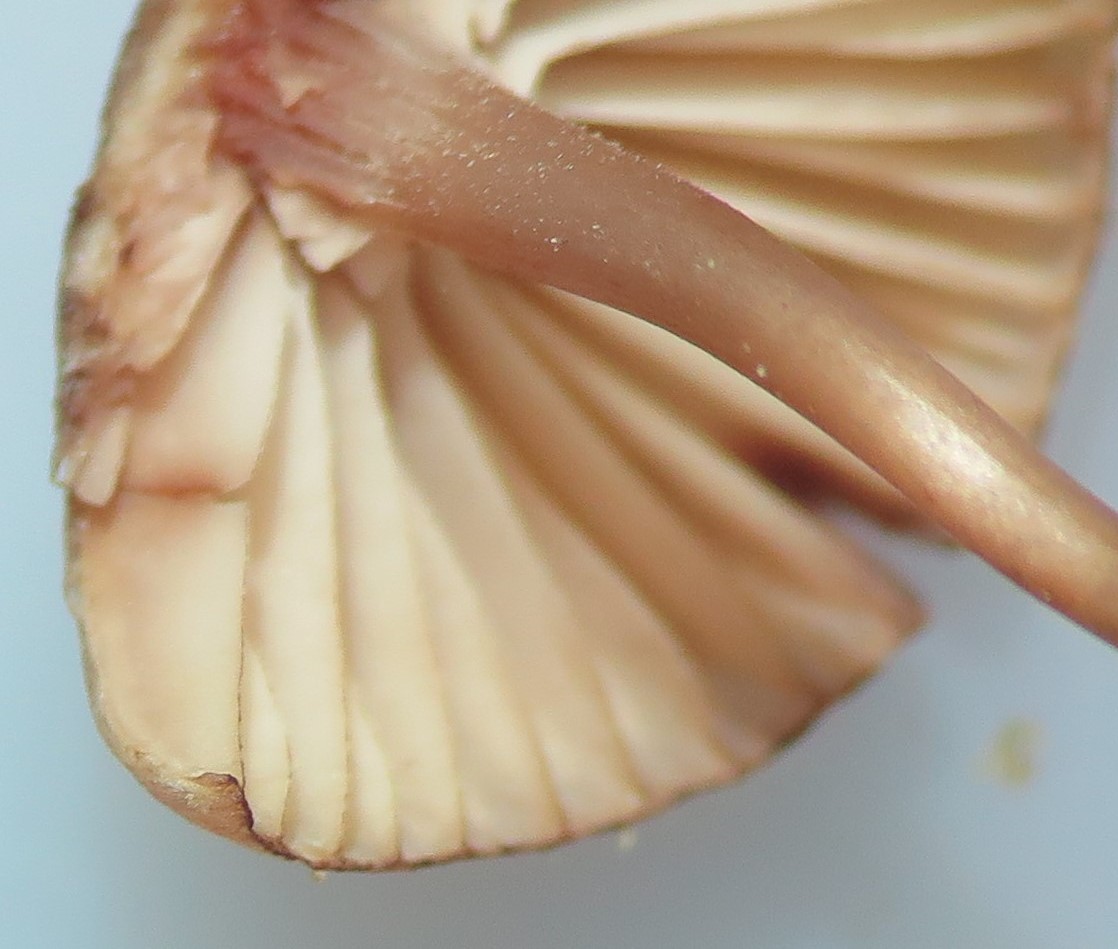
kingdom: Fungi
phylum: Basidiomycota
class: Agaricomycetes
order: Agaricales
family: Mycenaceae
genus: Mycena
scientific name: Mycena haematopus
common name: blødende huesvamp
